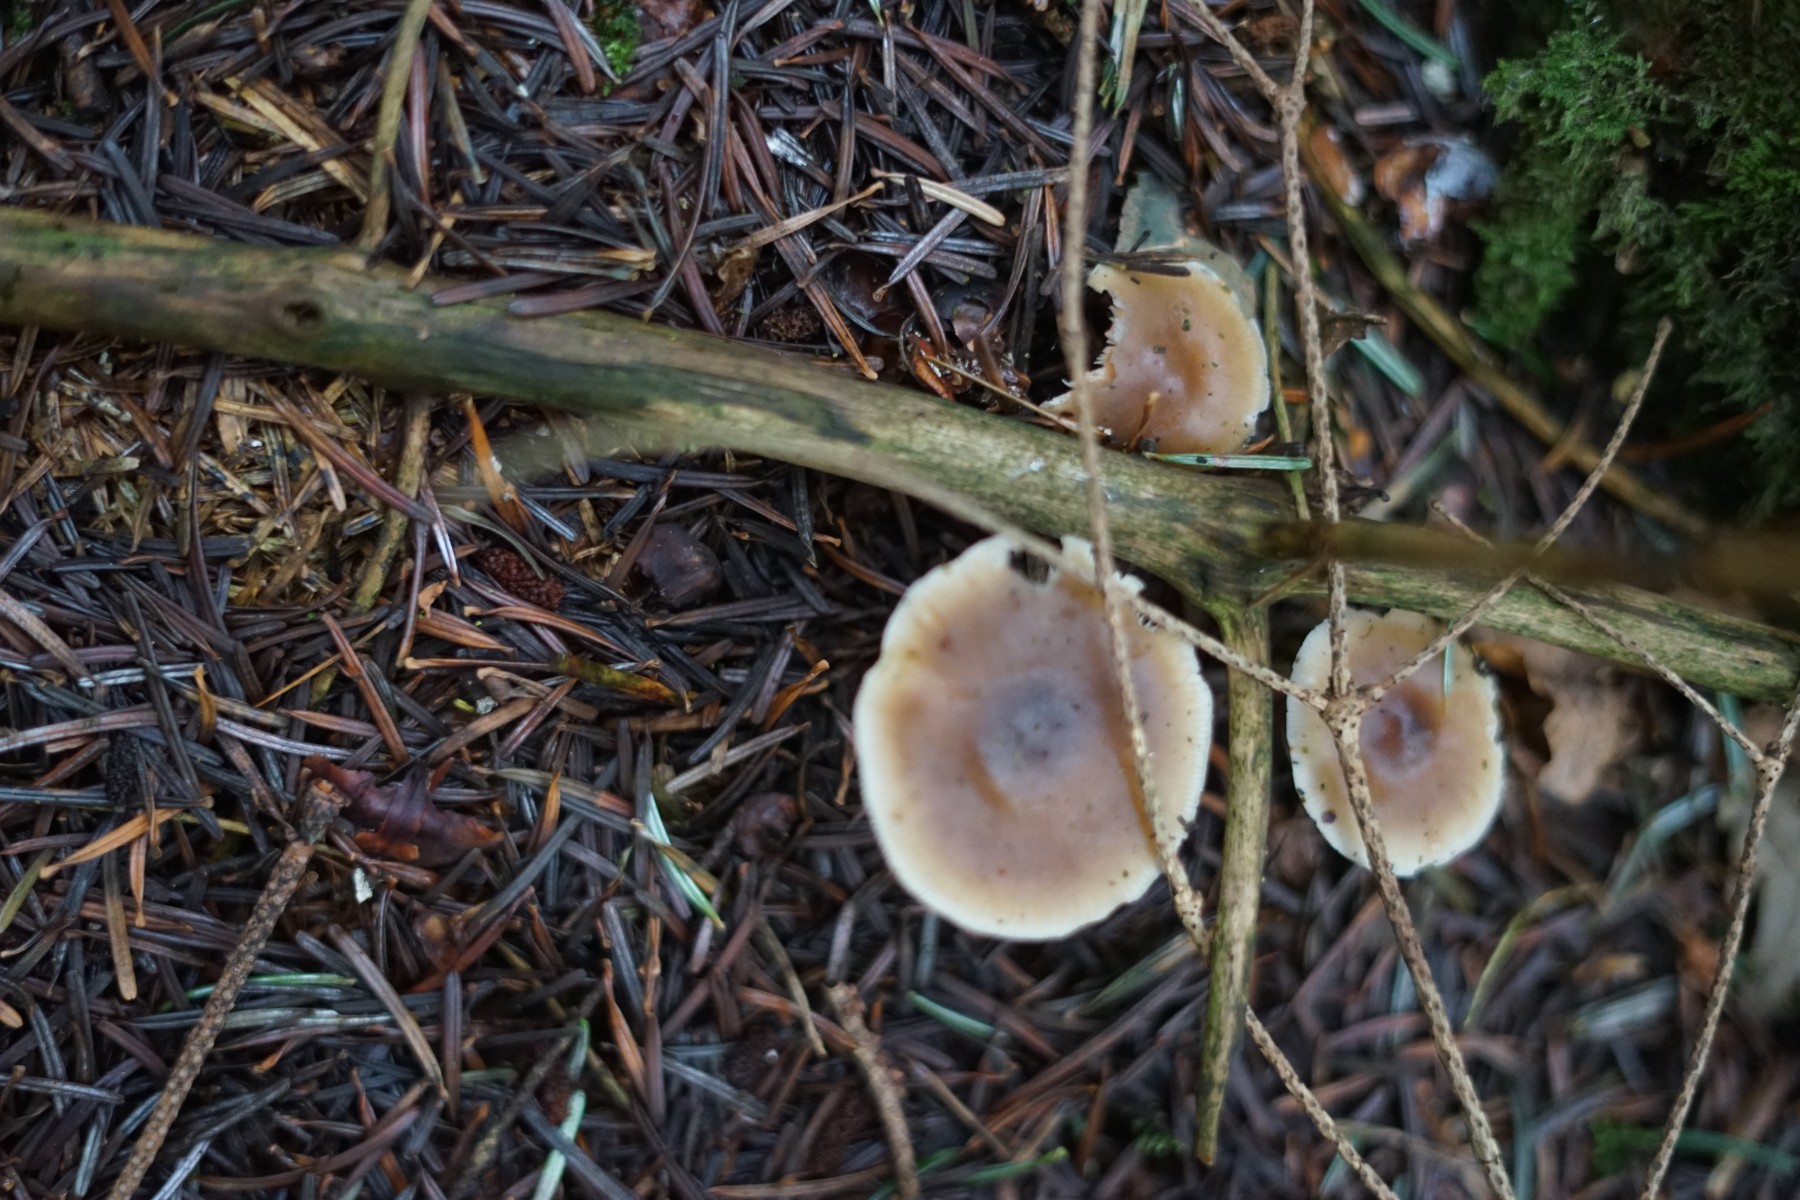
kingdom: Fungi
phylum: Basidiomycota
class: Agaricomycetes
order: Agaricales
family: Omphalotaceae
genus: Rhodocollybia
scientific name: Rhodocollybia asema
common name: horngrå fladhat
